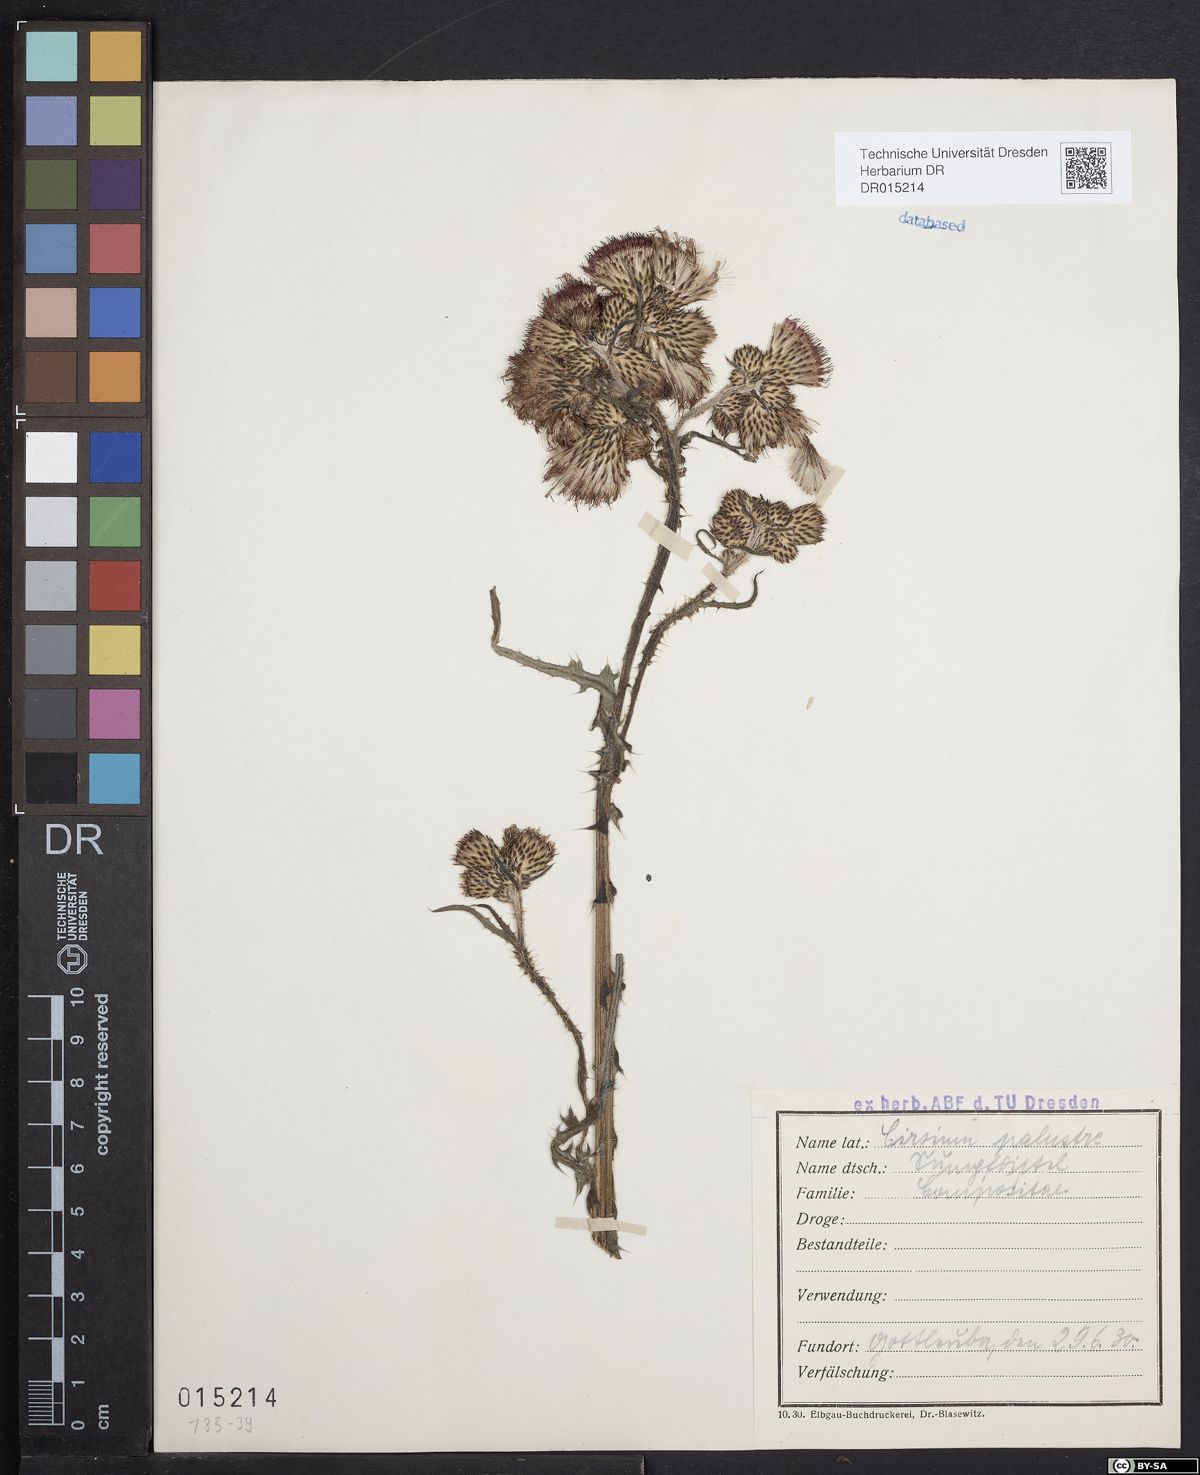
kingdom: Plantae
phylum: Tracheophyta
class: Magnoliopsida
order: Asterales
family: Asteraceae
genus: Cirsium
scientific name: Cirsium palustre
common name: Marsh thistle
